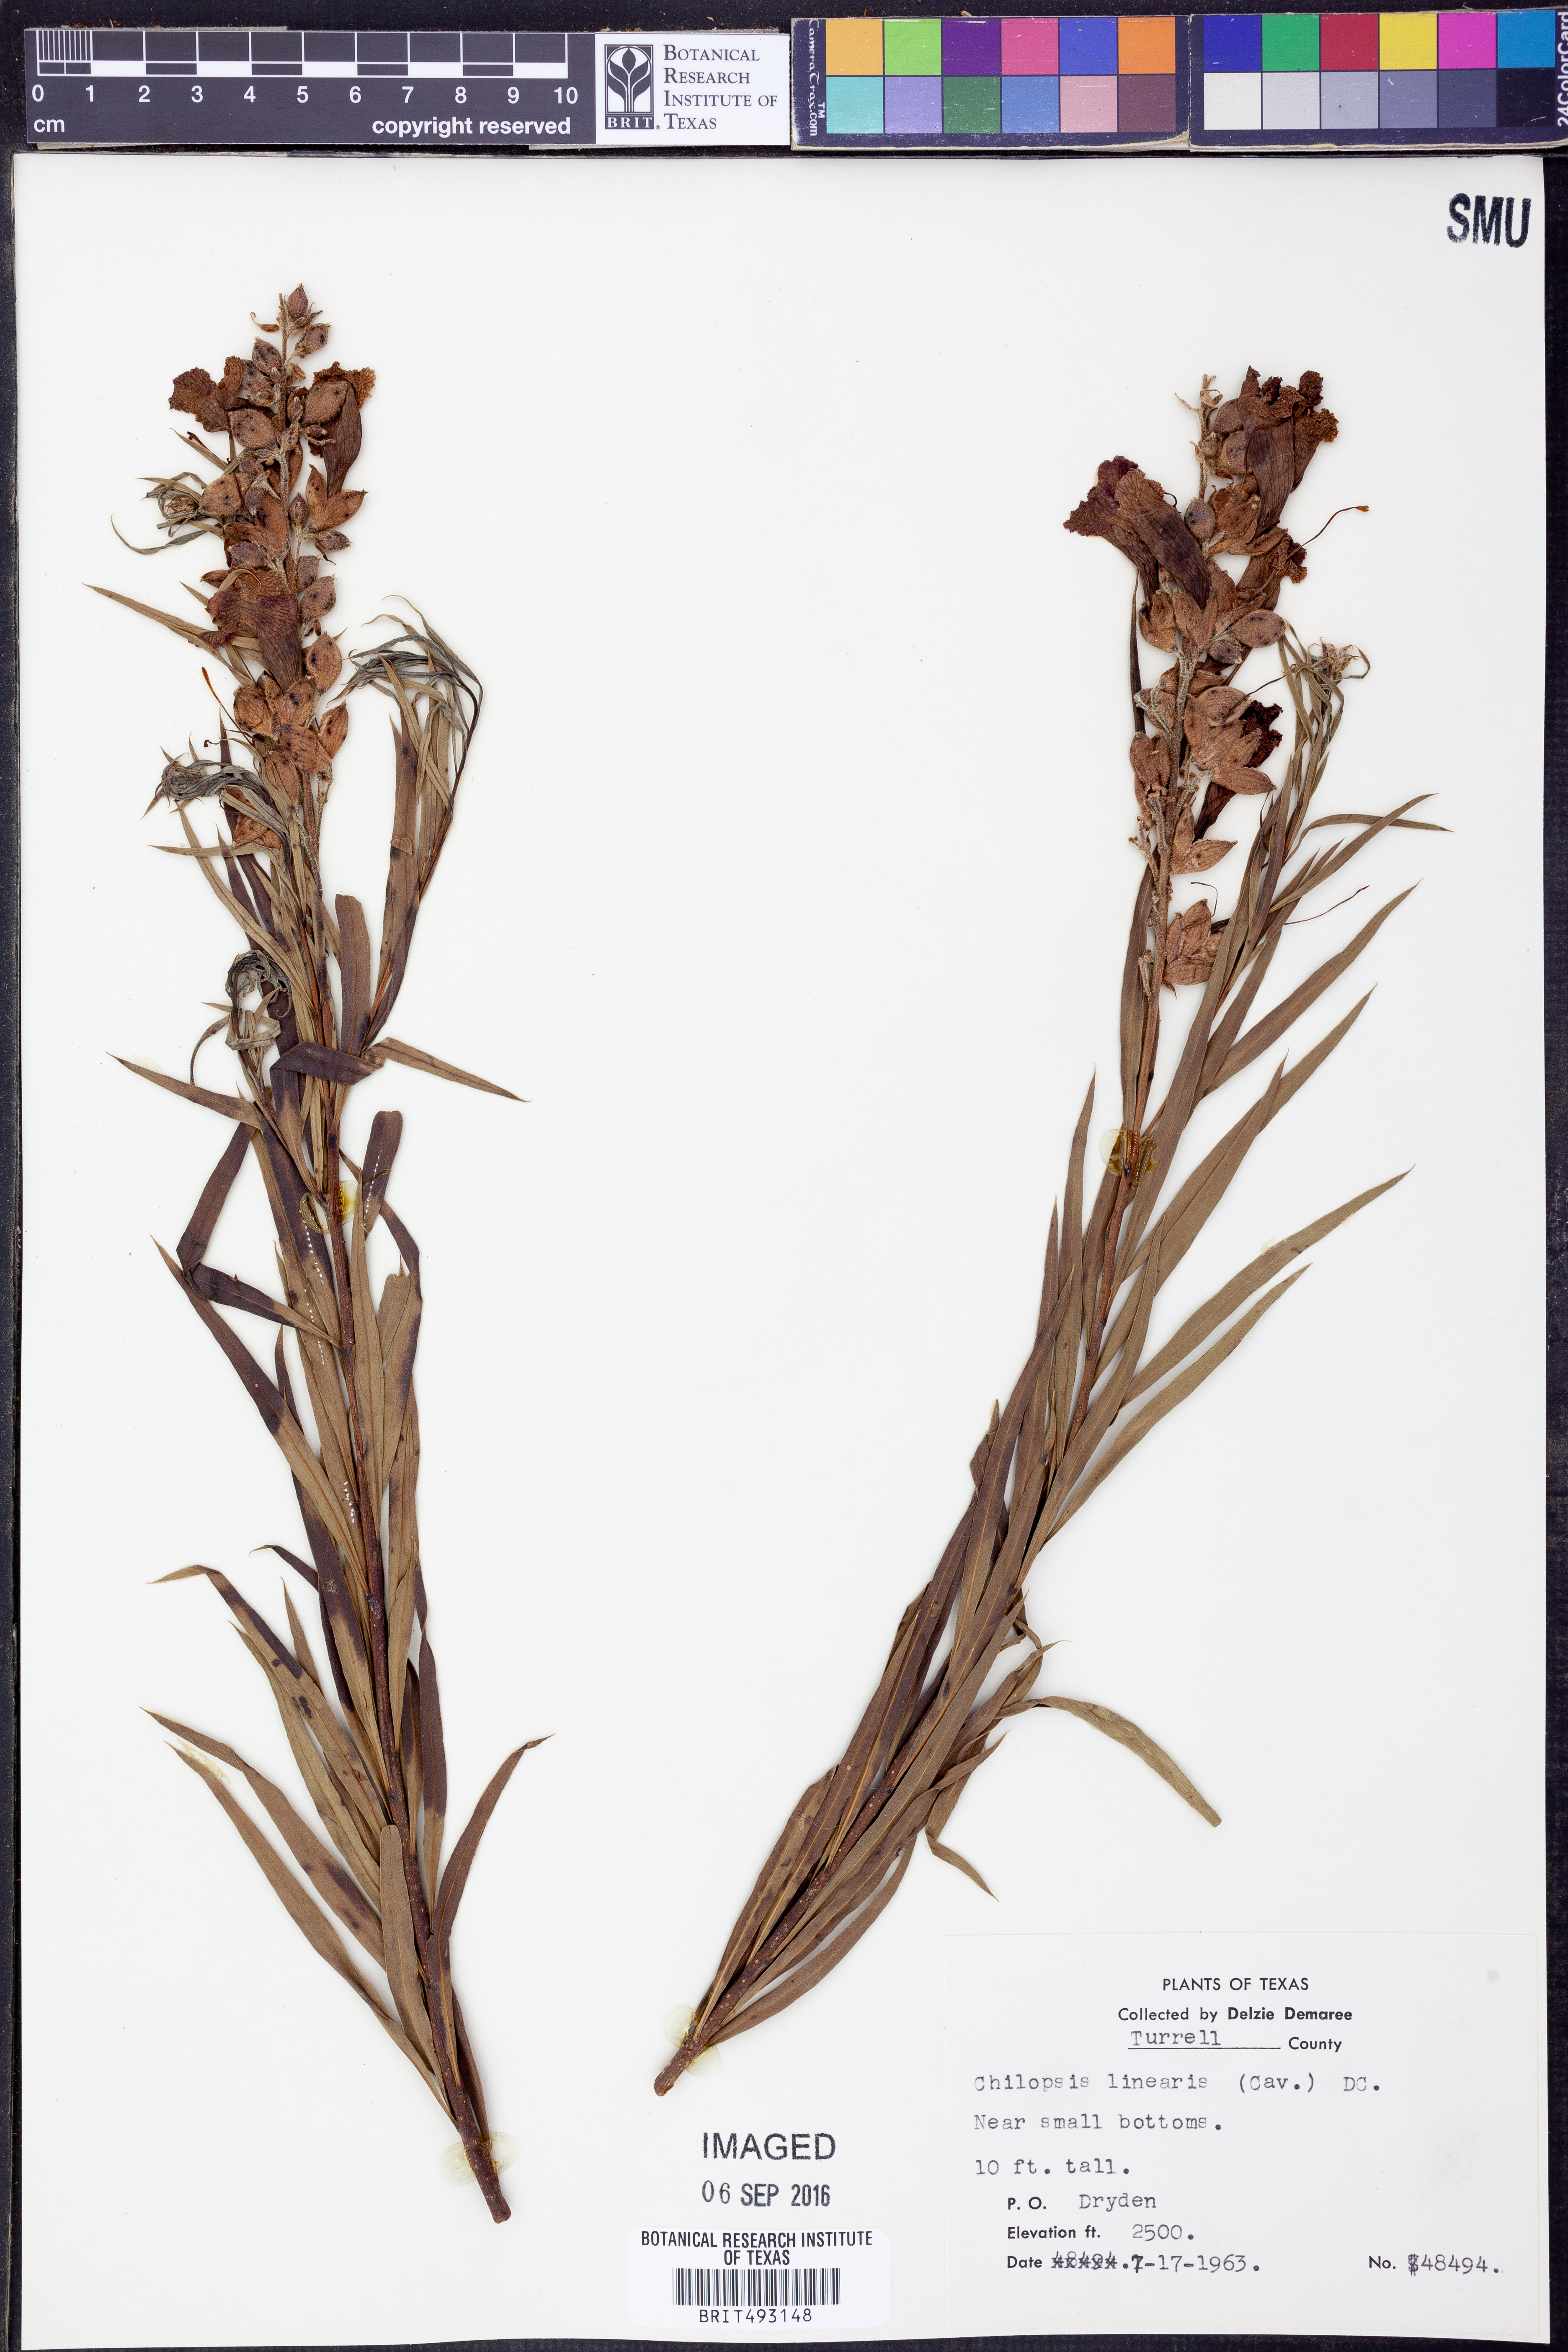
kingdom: Plantae
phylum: Tracheophyta
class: Magnoliopsida
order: Lamiales
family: Bignoniaceae
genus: Chilopsis
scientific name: Chilopsis linearis
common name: Desert-willow
